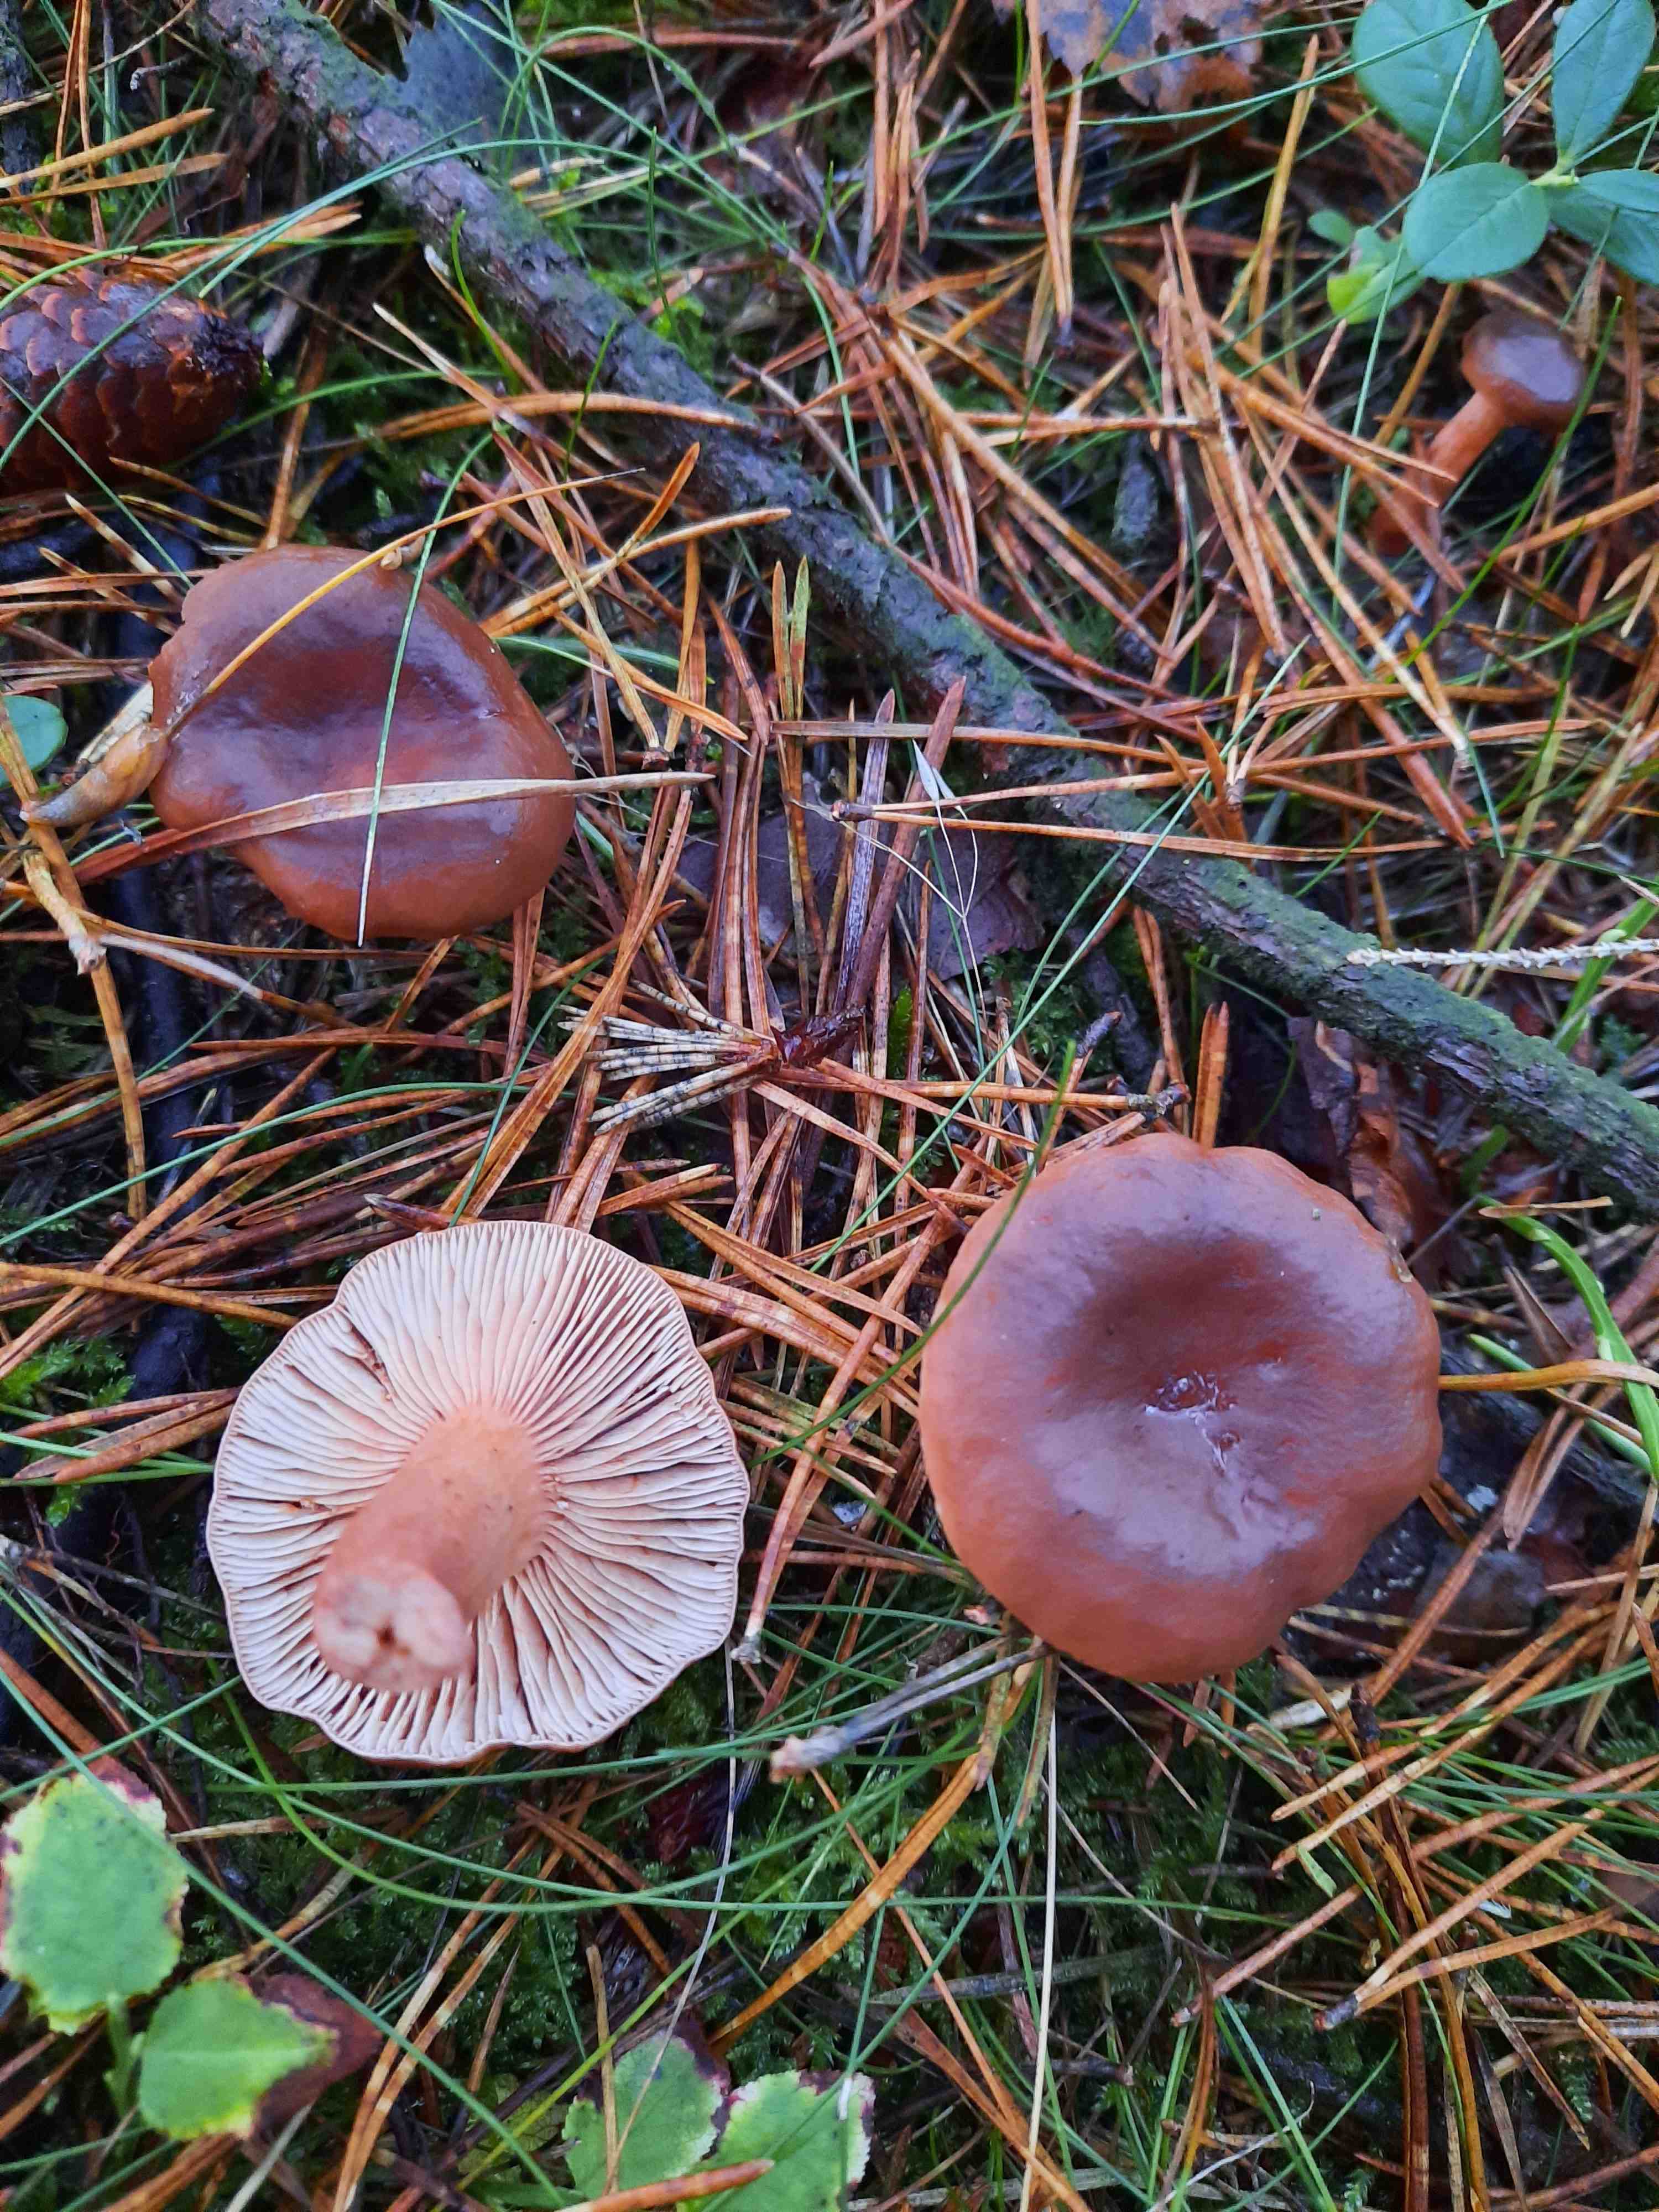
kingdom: Fungi
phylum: Basidiomycota
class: Agaricomycetes
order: Russulales
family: Russulaceae
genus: Lactarius
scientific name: Lactarius hepaticus
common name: leverbrun mælkehat
